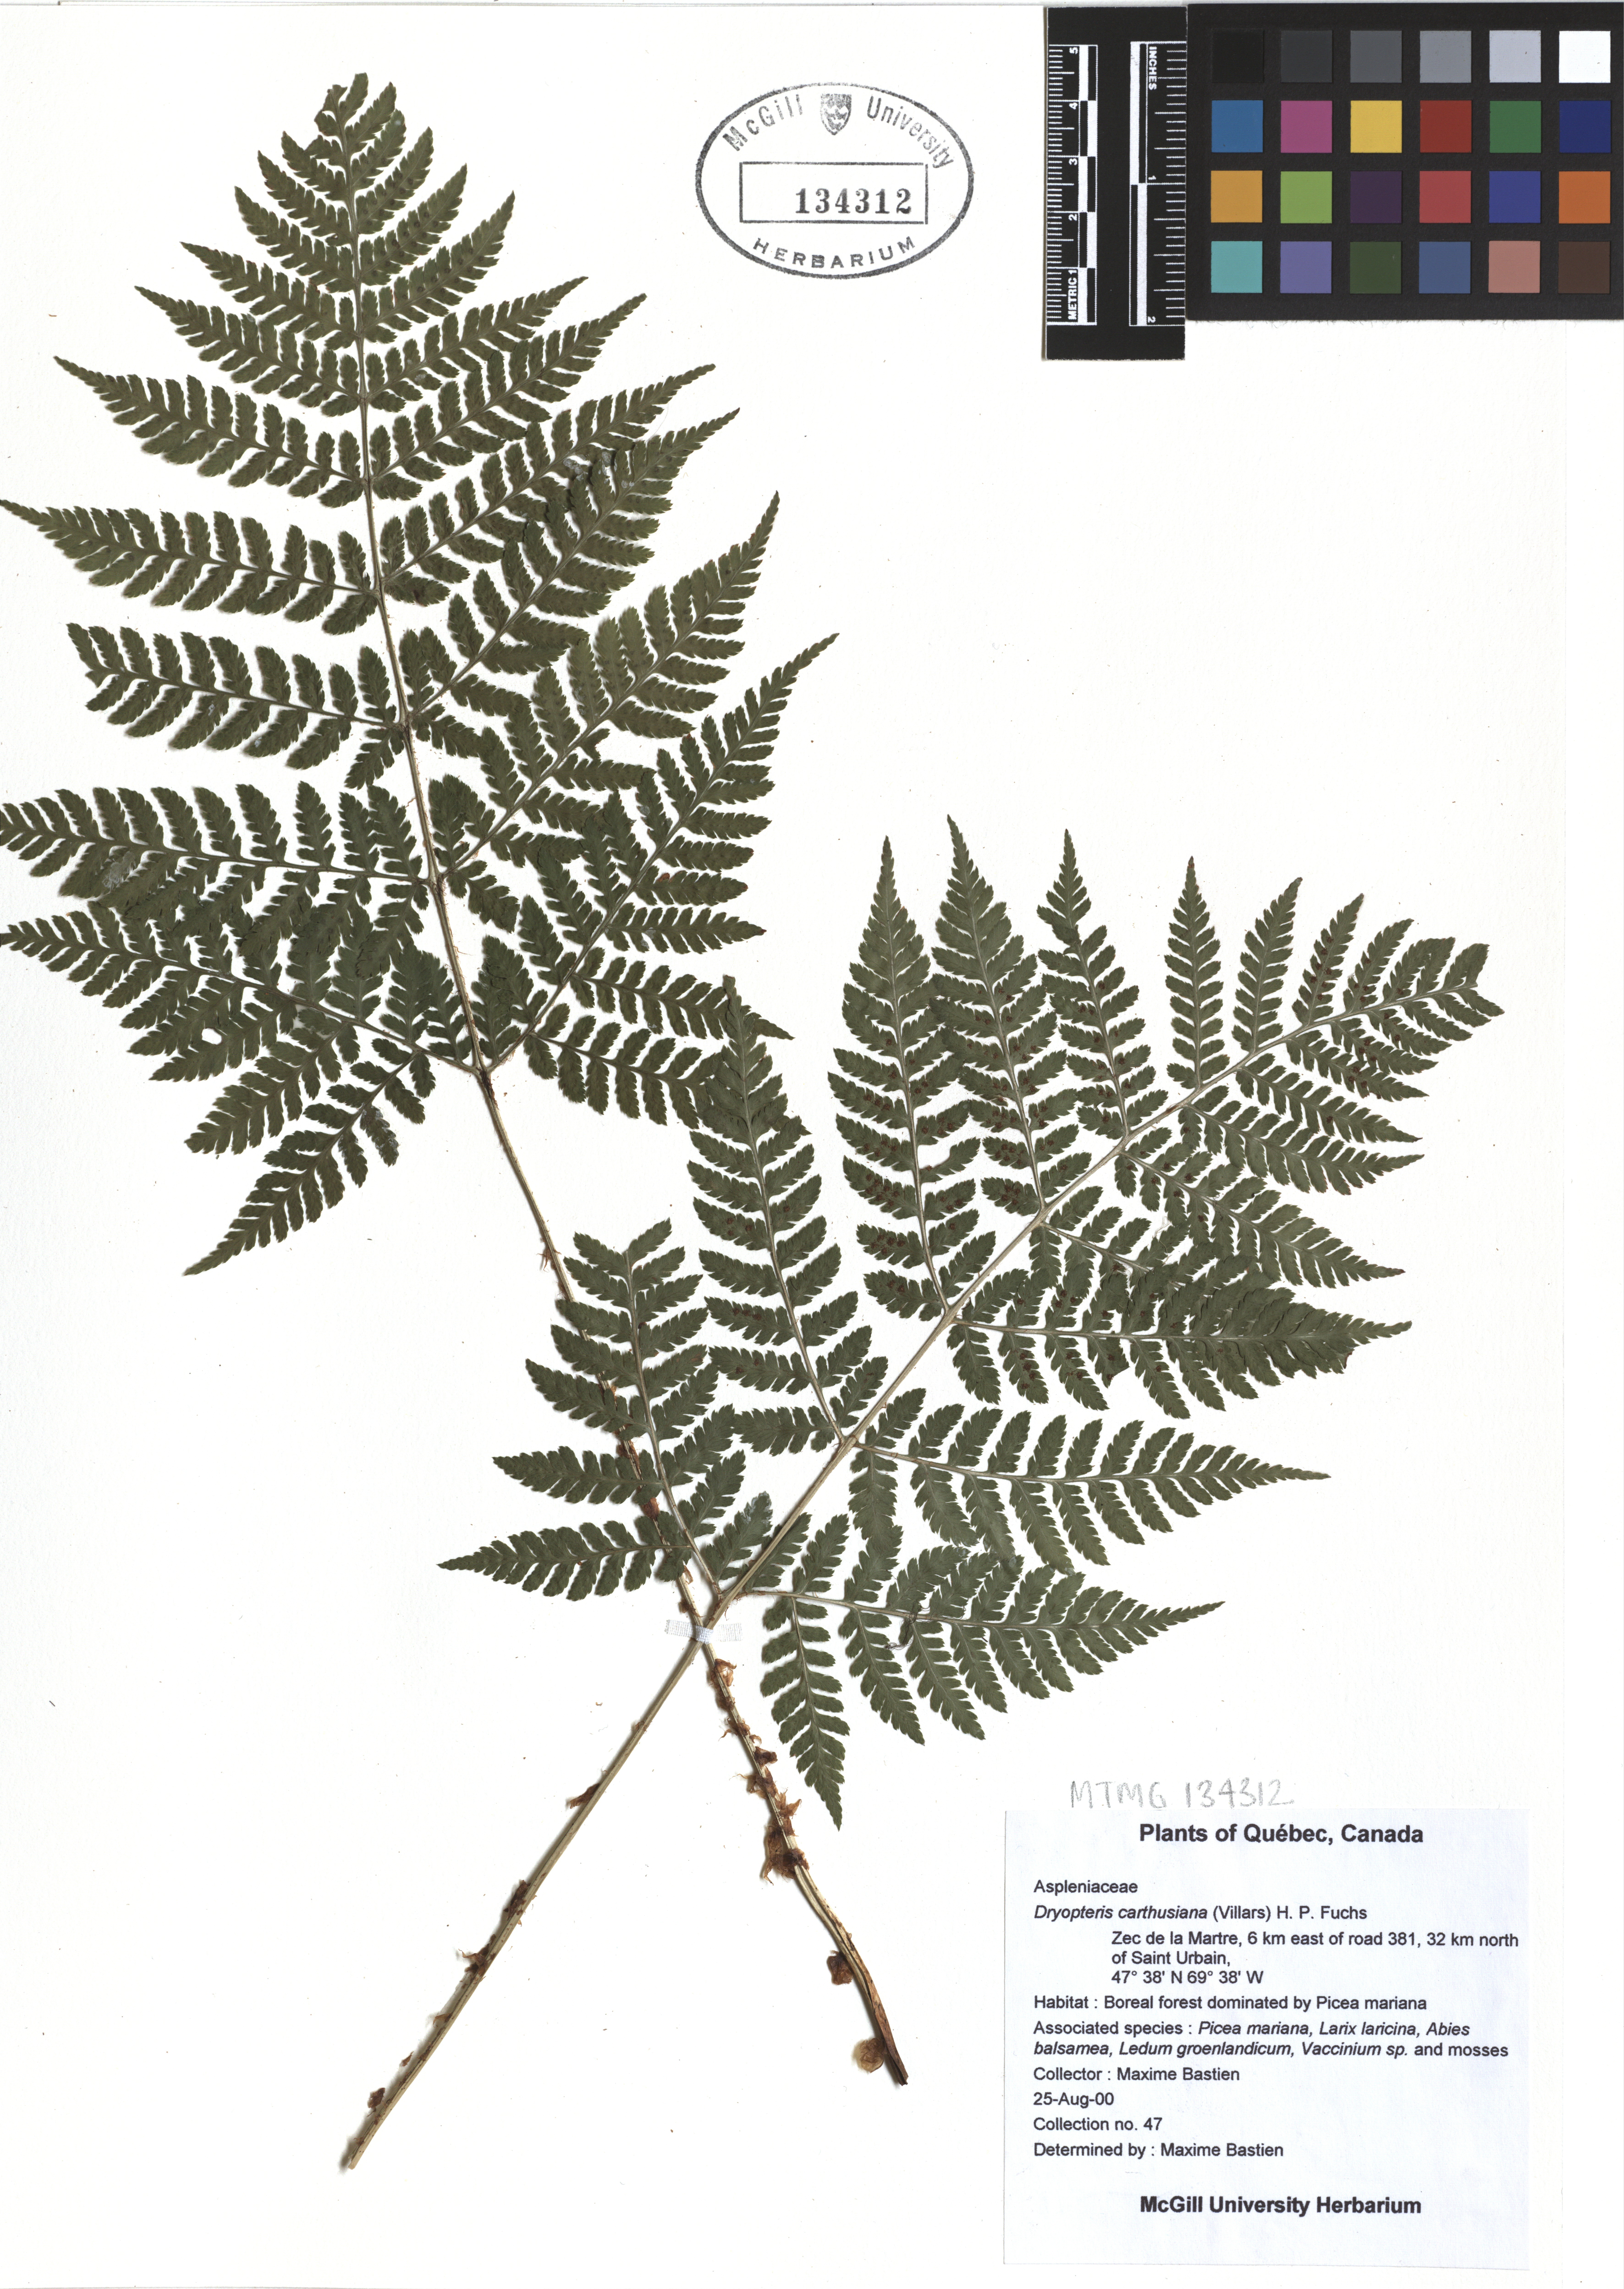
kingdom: Plantae
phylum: Tracheophyta
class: Polypodiopsida
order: Polypodiales
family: Dryopteridaceae
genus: Dryopteris
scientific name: Dryopteris carthusiana
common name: Narrow buckler-fern
